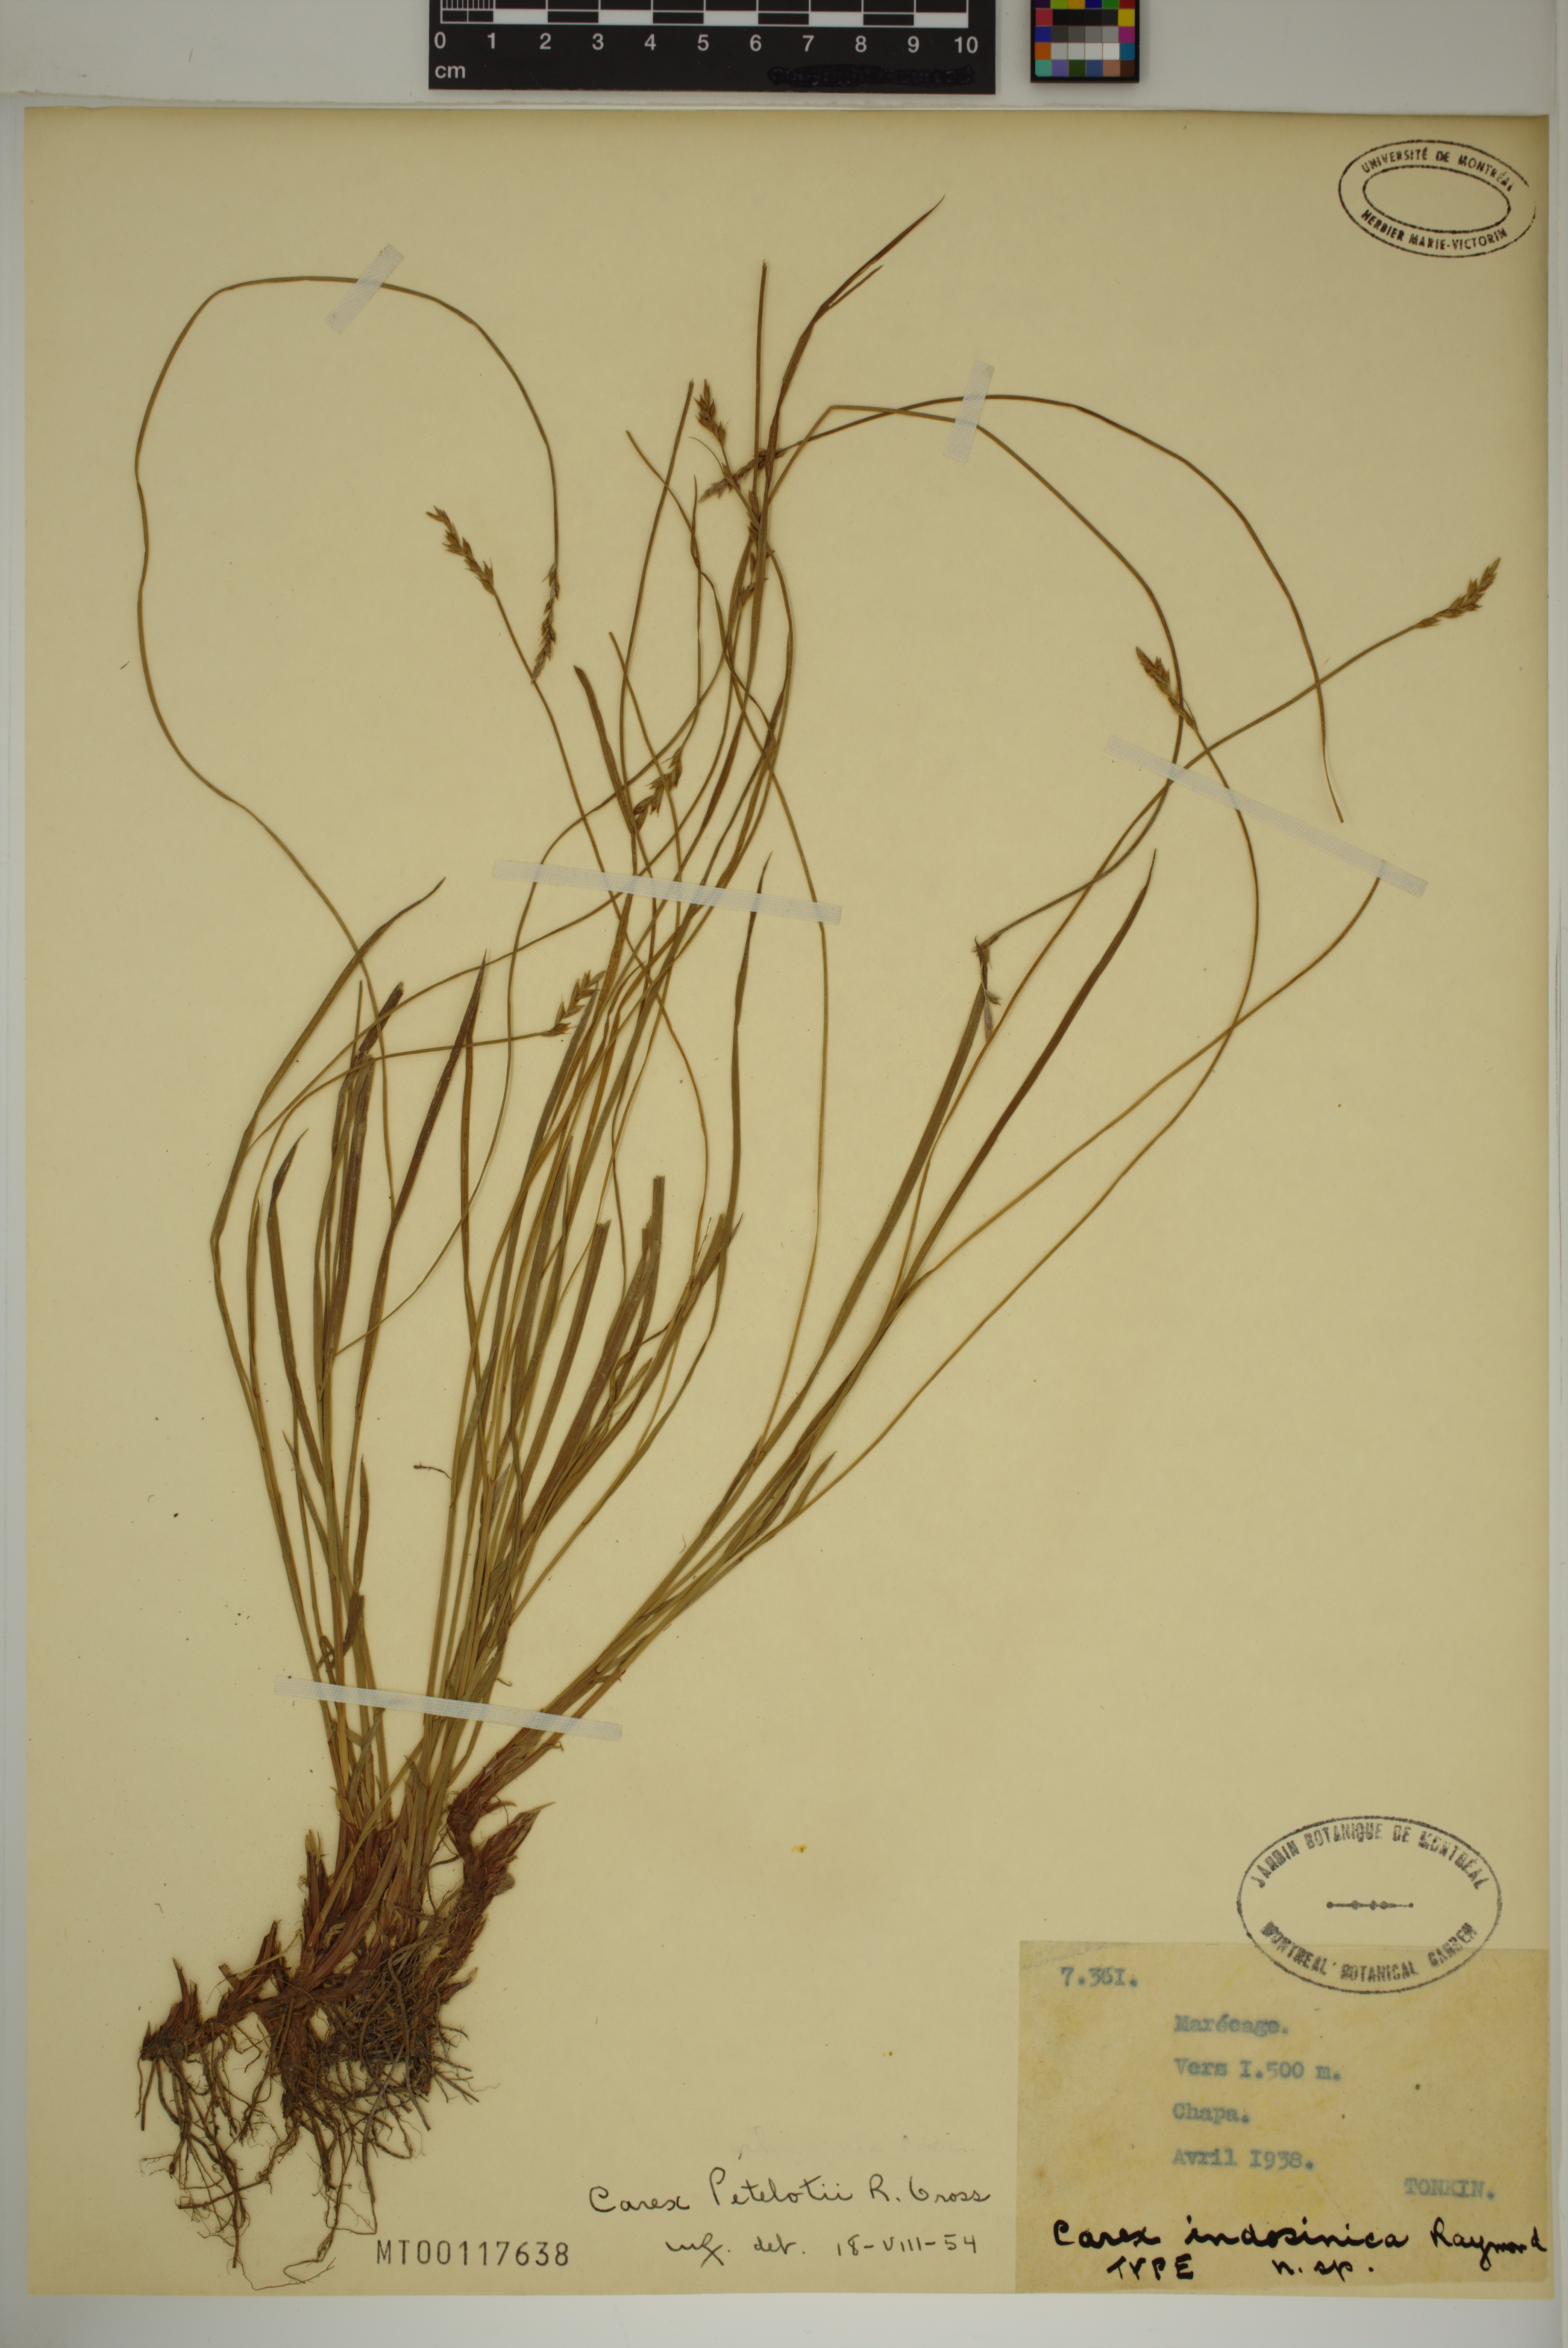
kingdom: Plantae
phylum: Tracheophyta
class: Liliopsida
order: Poales
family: Cyperaceae
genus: Carex
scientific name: Carex petelotii
